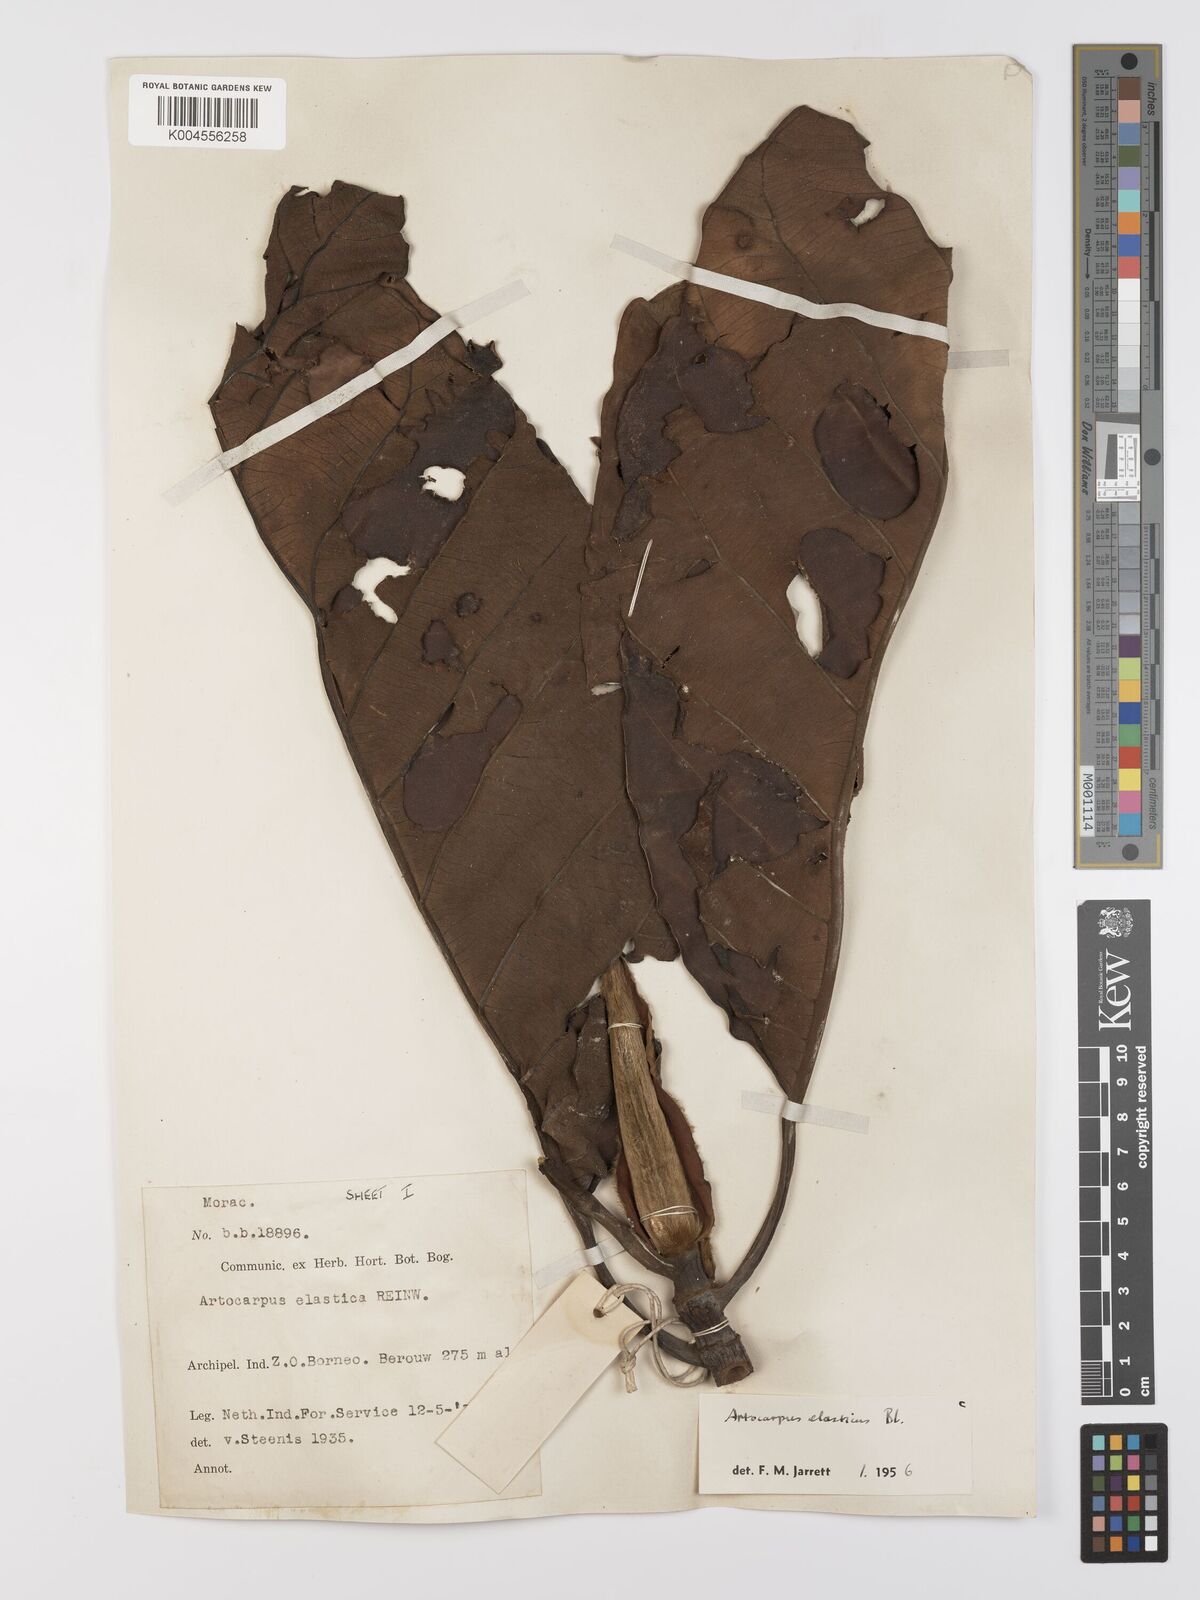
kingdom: Plantae
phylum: Tracheophyta
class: Magnoliopsida
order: Rosales
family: Moraceae
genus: Artocarpus
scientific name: Artocarpus elasticus
